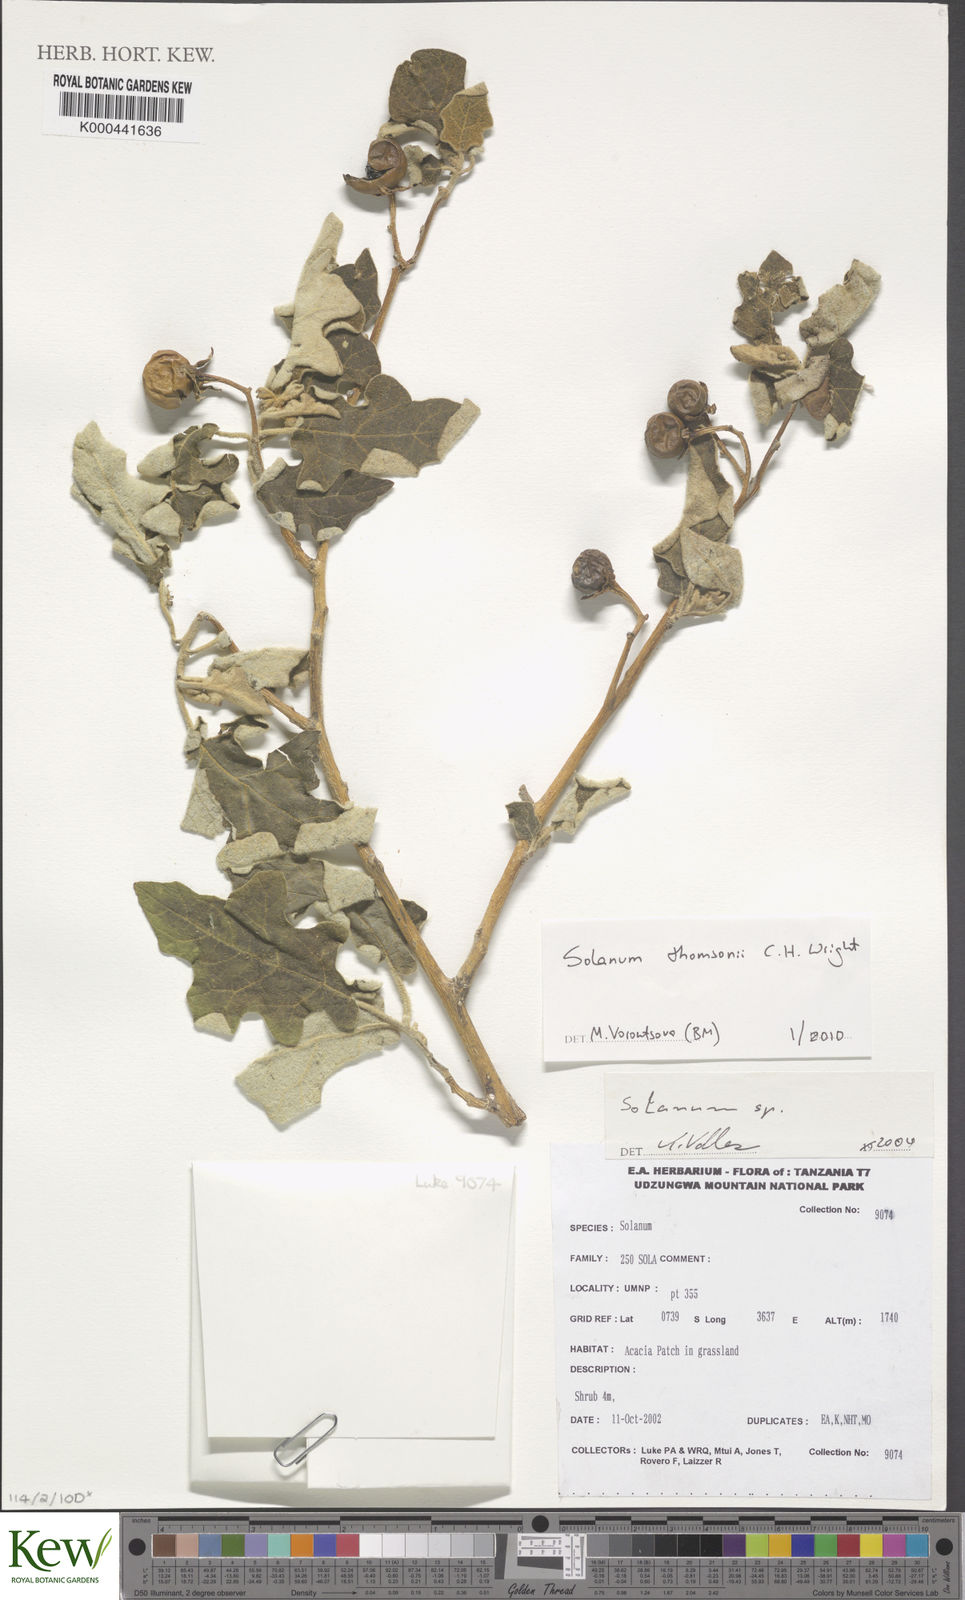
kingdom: Plantae
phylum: Tracheophyta
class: Magnoliopsida
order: Solanales
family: Solanaceae
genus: Solanum
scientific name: Solanum aculeastrum
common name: Goat bitter-apple
